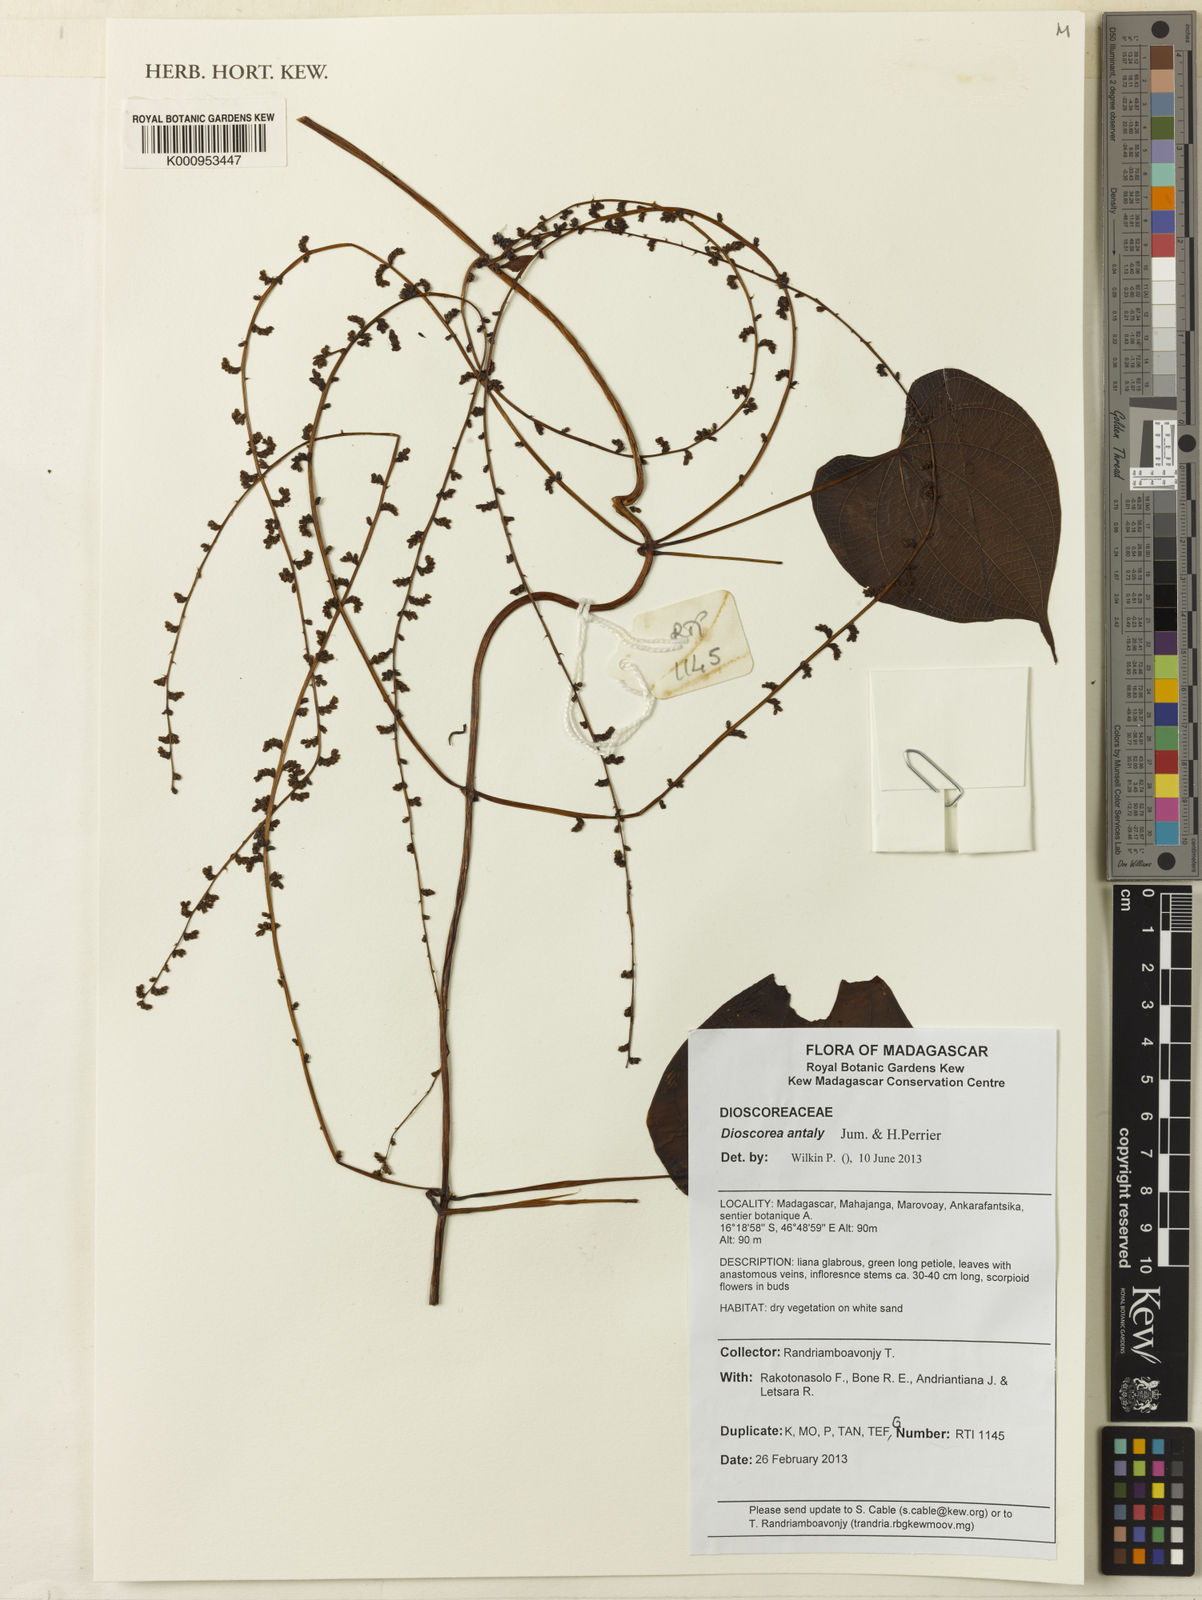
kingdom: Plantae
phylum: Tracheophyta
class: Liliopsida
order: Dioscoreales
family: Dioscoreaceae
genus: Dioscorea
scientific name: Dioscorea antaly
